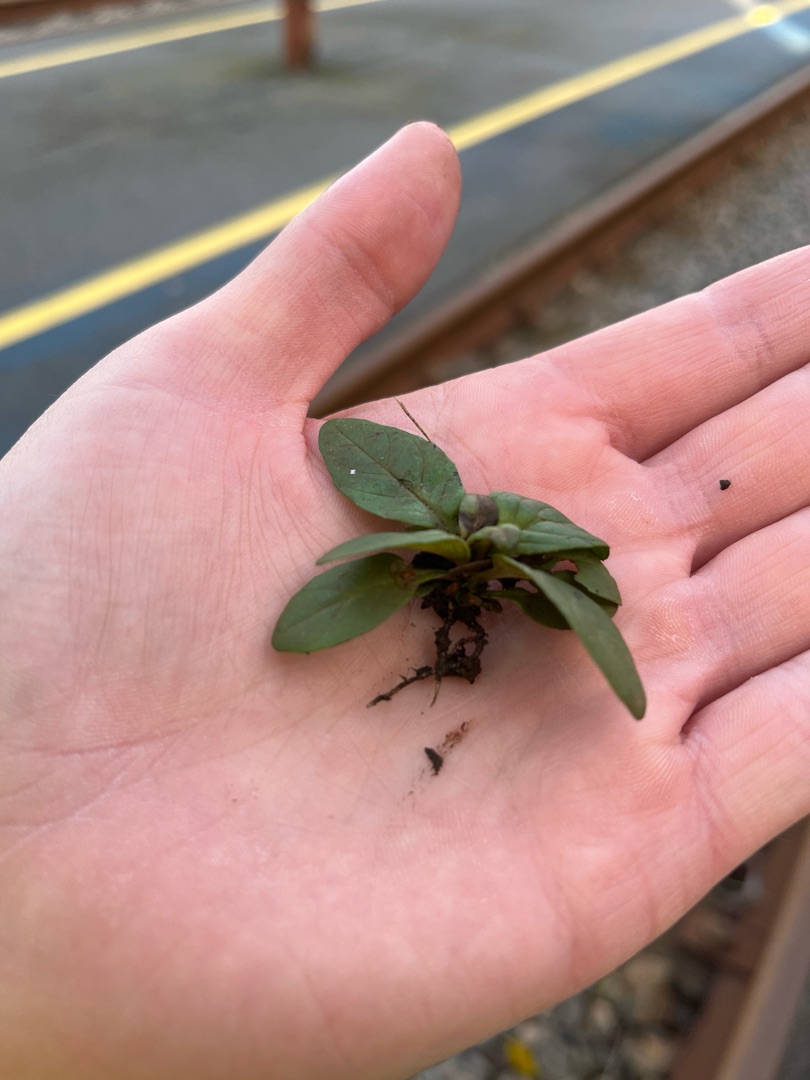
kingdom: Plantae
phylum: Tracheophyta
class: Magnoliopsida
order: Lamiales
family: Lamiaceae
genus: Prunella
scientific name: Prunella vulgaris
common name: Almindelig brunelle
